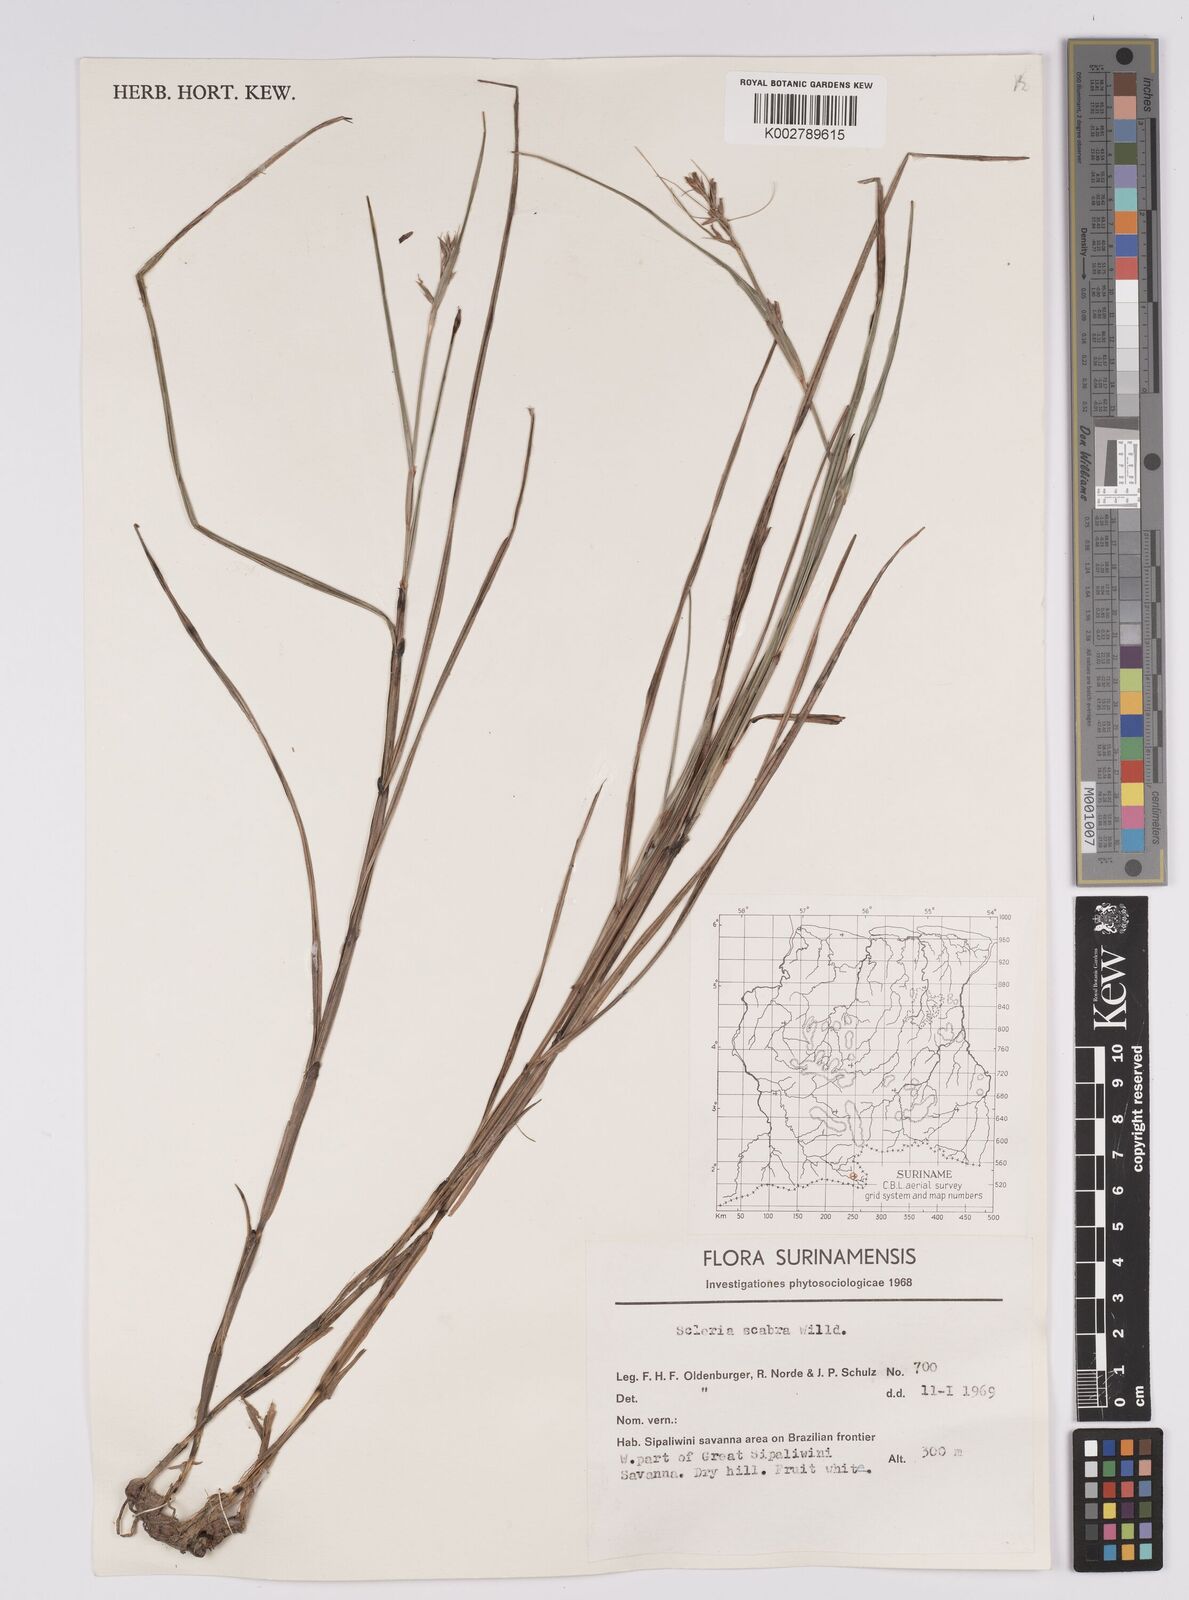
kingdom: Plantae
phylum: Tracheophyta
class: Liliopsida
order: Poales
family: Cyperaceae
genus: Scleria
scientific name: Scleria scabra
